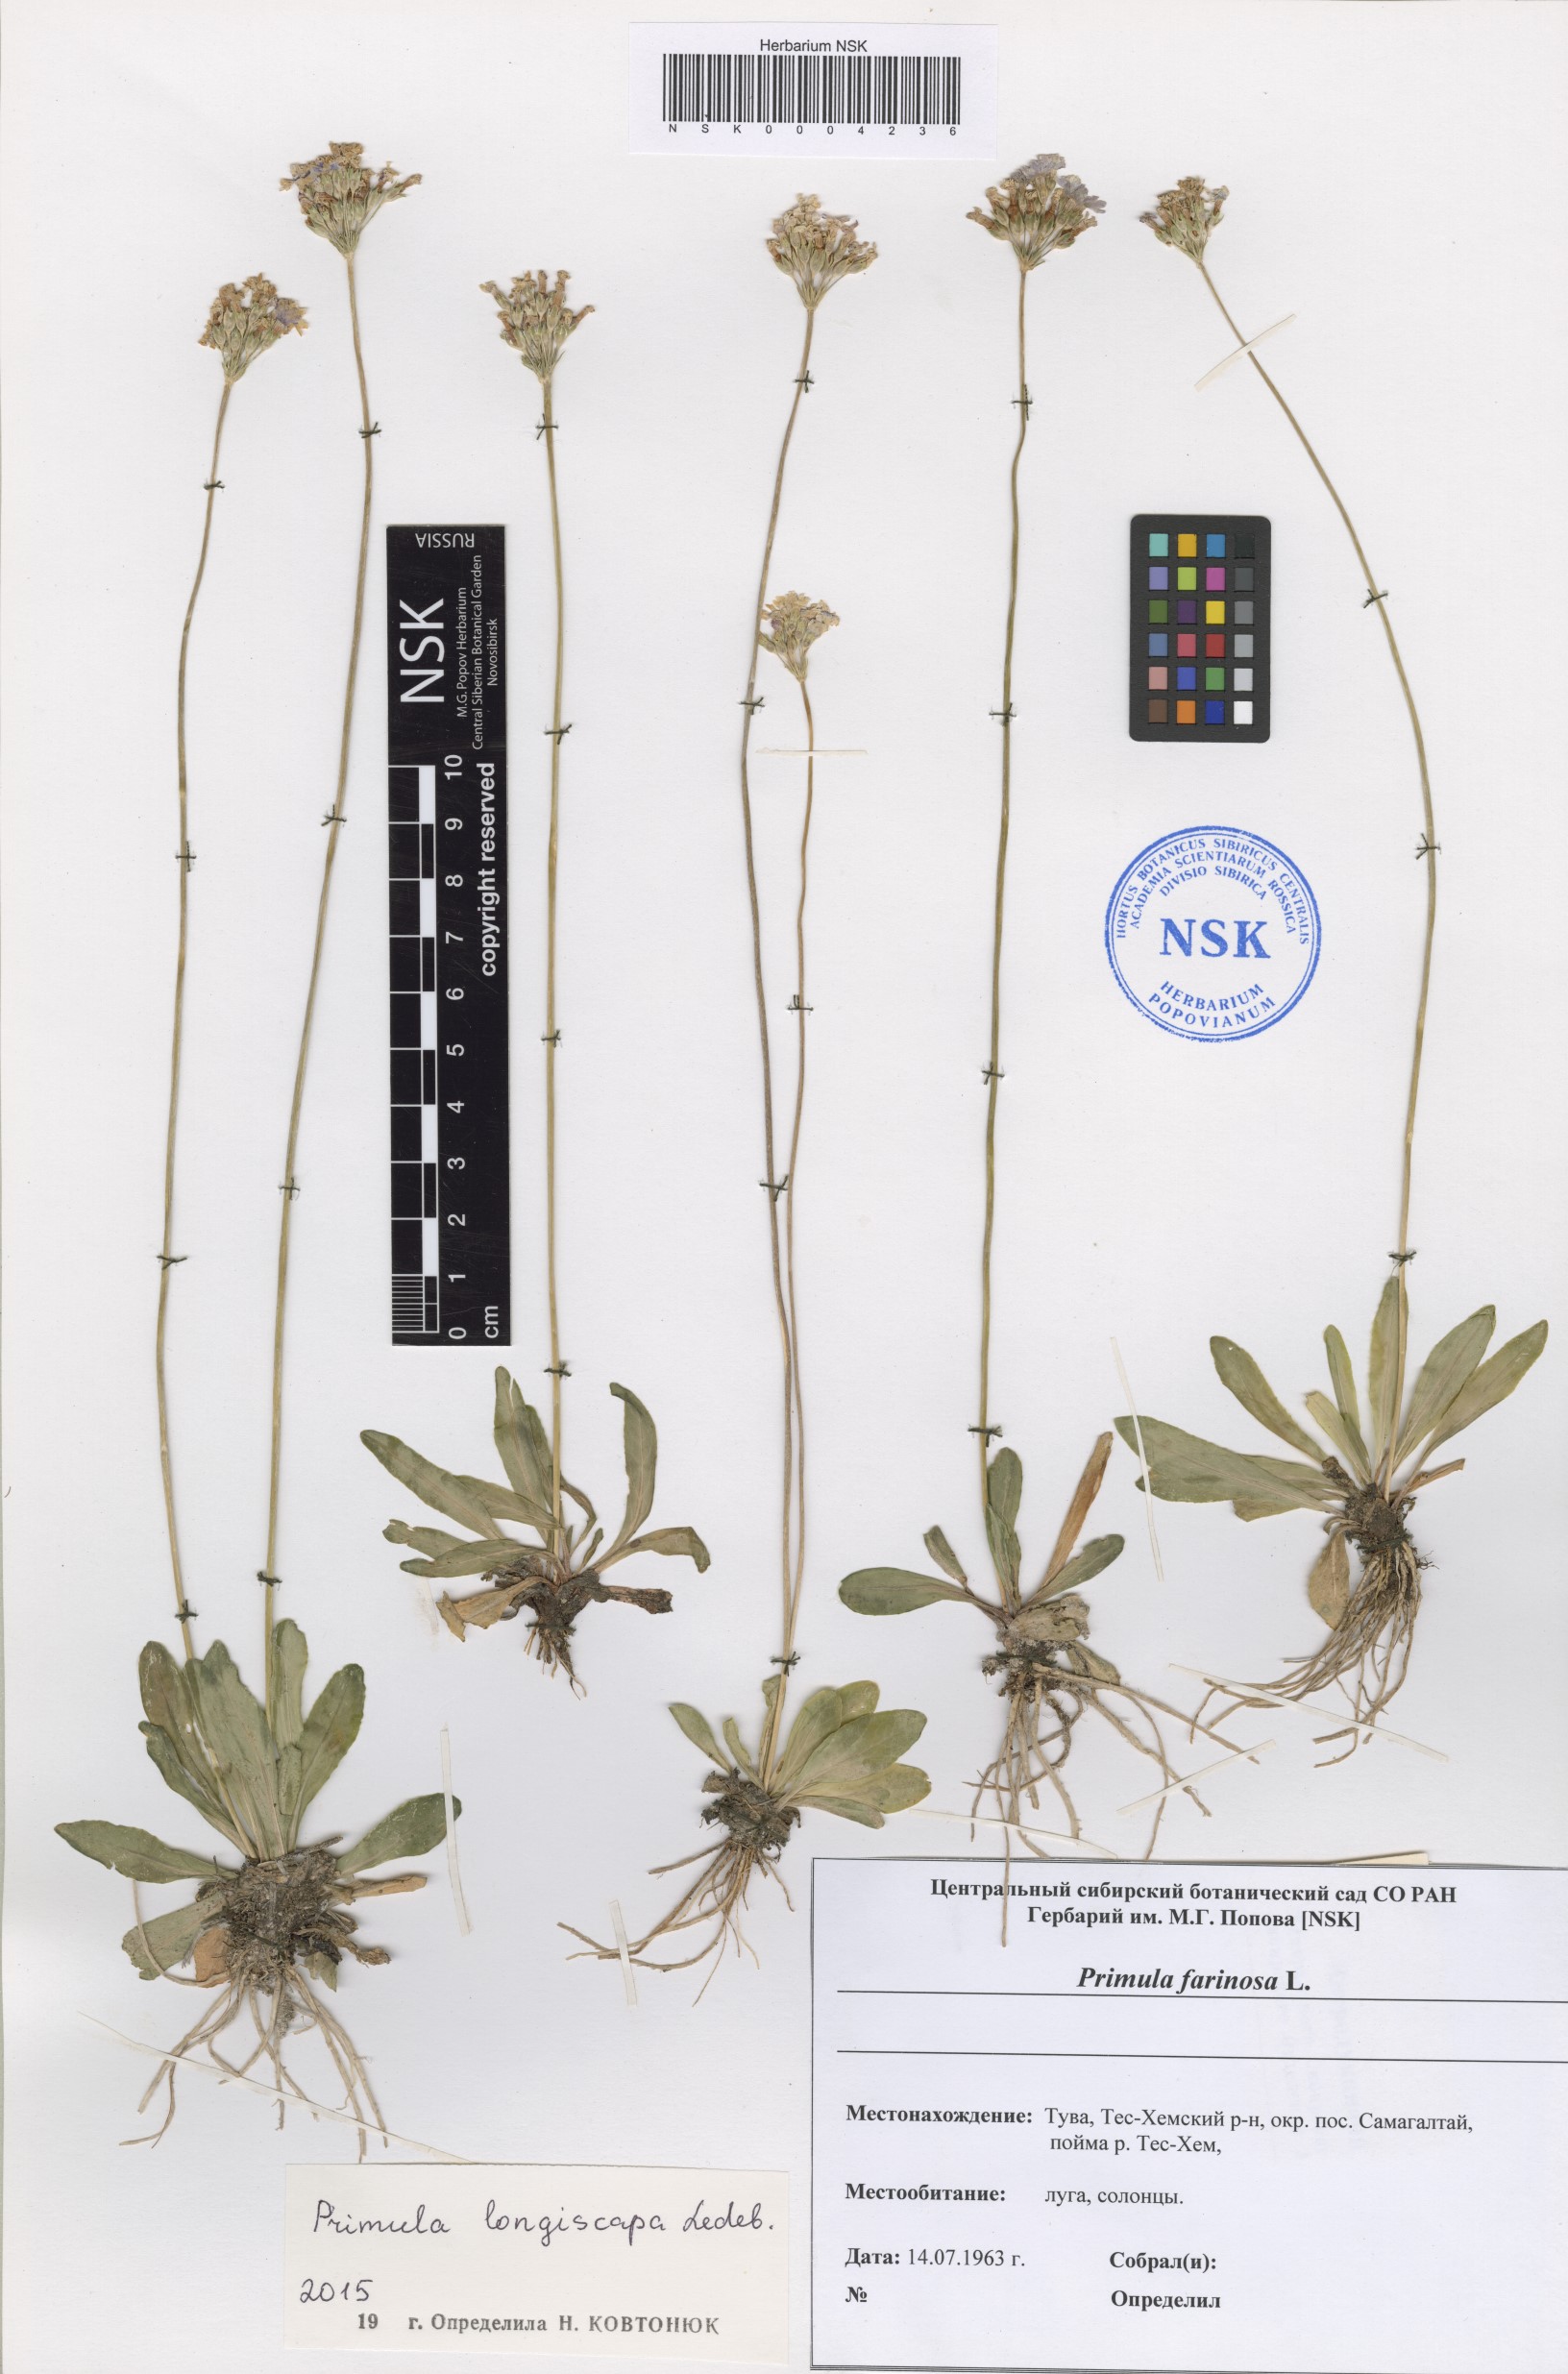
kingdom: Plantae
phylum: Tracheophyta
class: Magnoliopsida
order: Ericales
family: Primulaceae
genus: Primula
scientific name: Primula longiscapa
